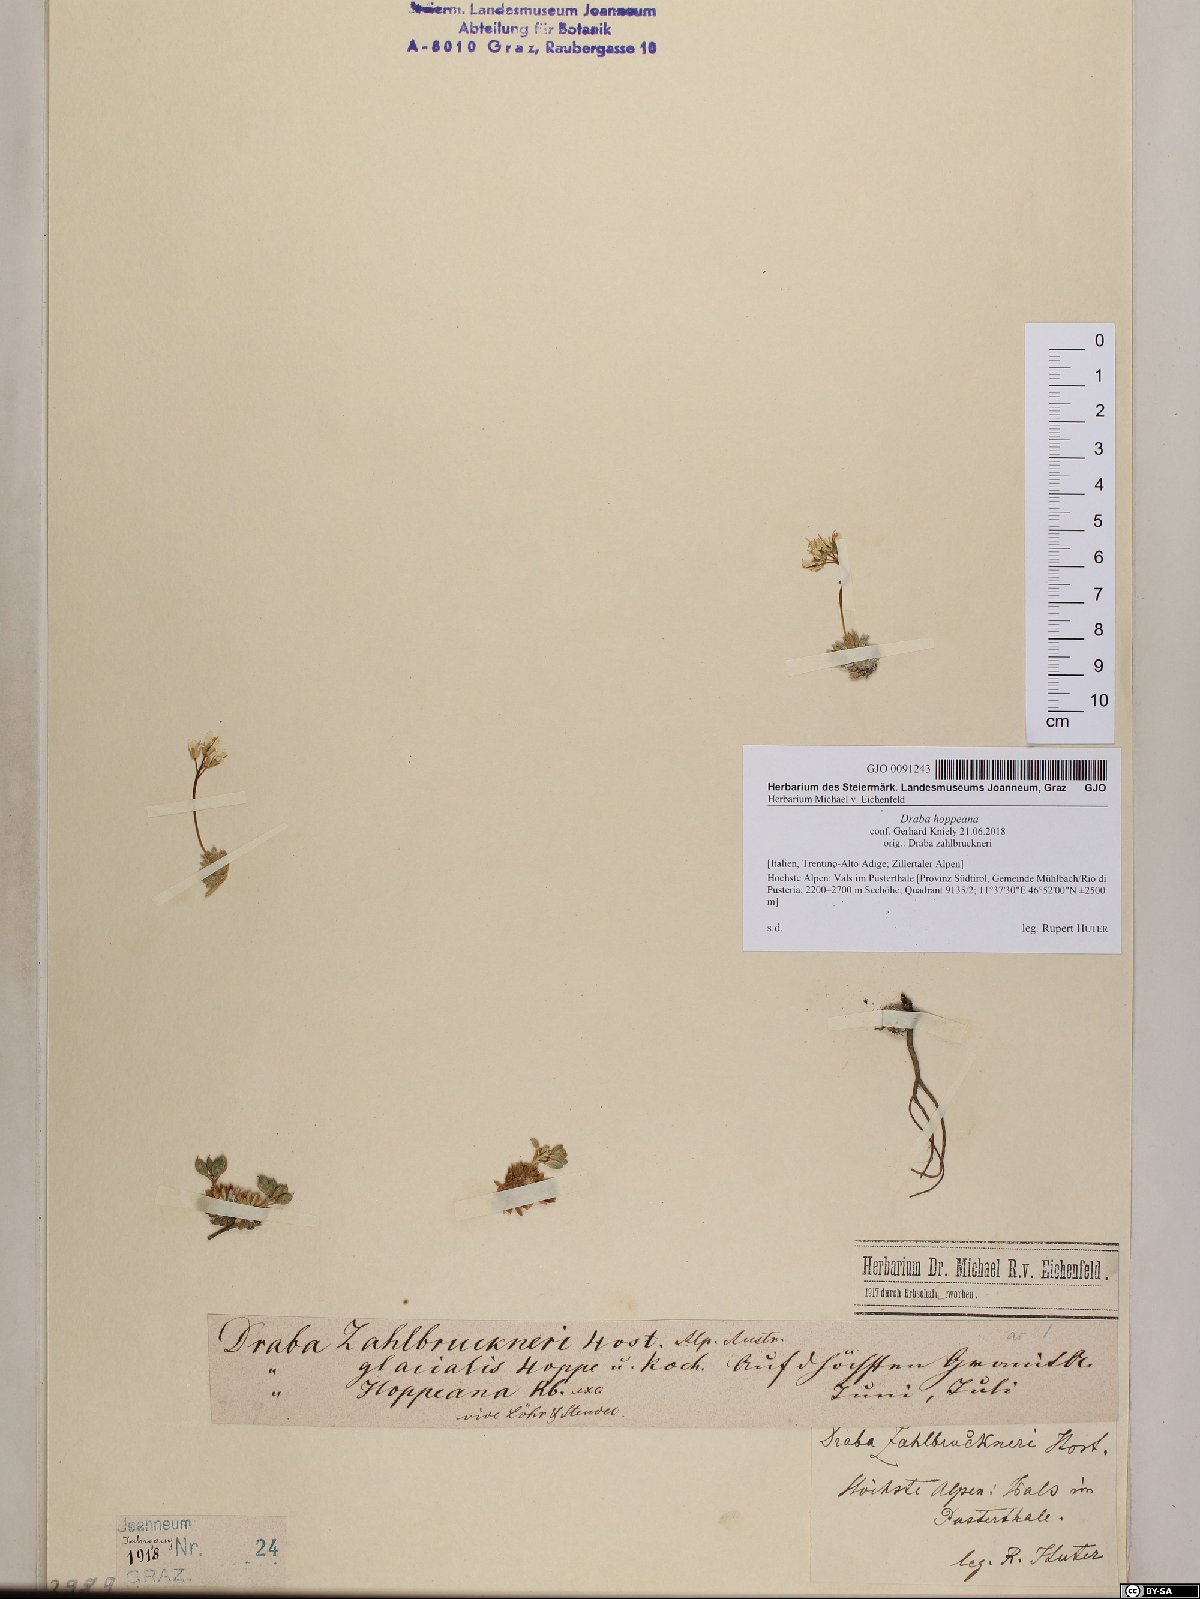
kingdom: Plantae
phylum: Tracheophyta
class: Magnoliopsida
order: Brassicales
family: Brassicaceae
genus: Draba
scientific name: Draba hoppeana
